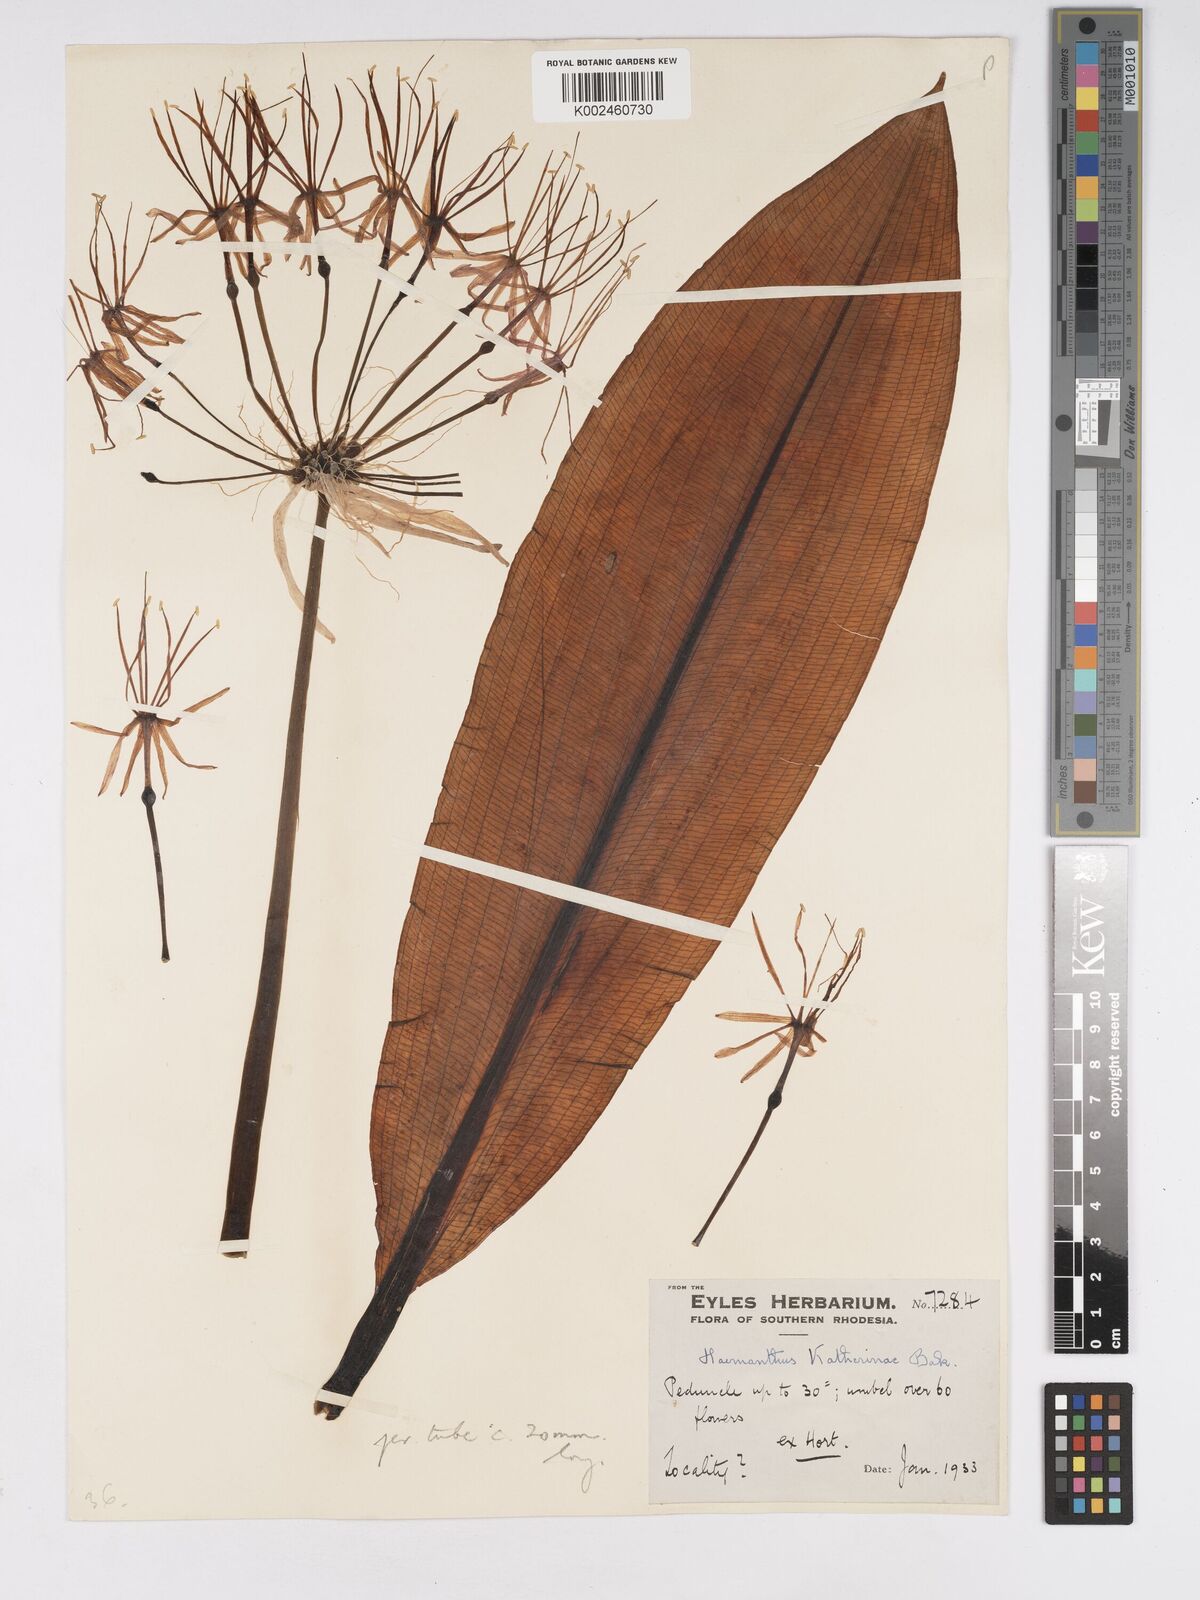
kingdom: Plantae
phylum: Tracheophyta
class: Liliopsida
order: Asparagales
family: Amaryllidaceae
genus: Scadoxus
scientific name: Scadoxus multiflorus
